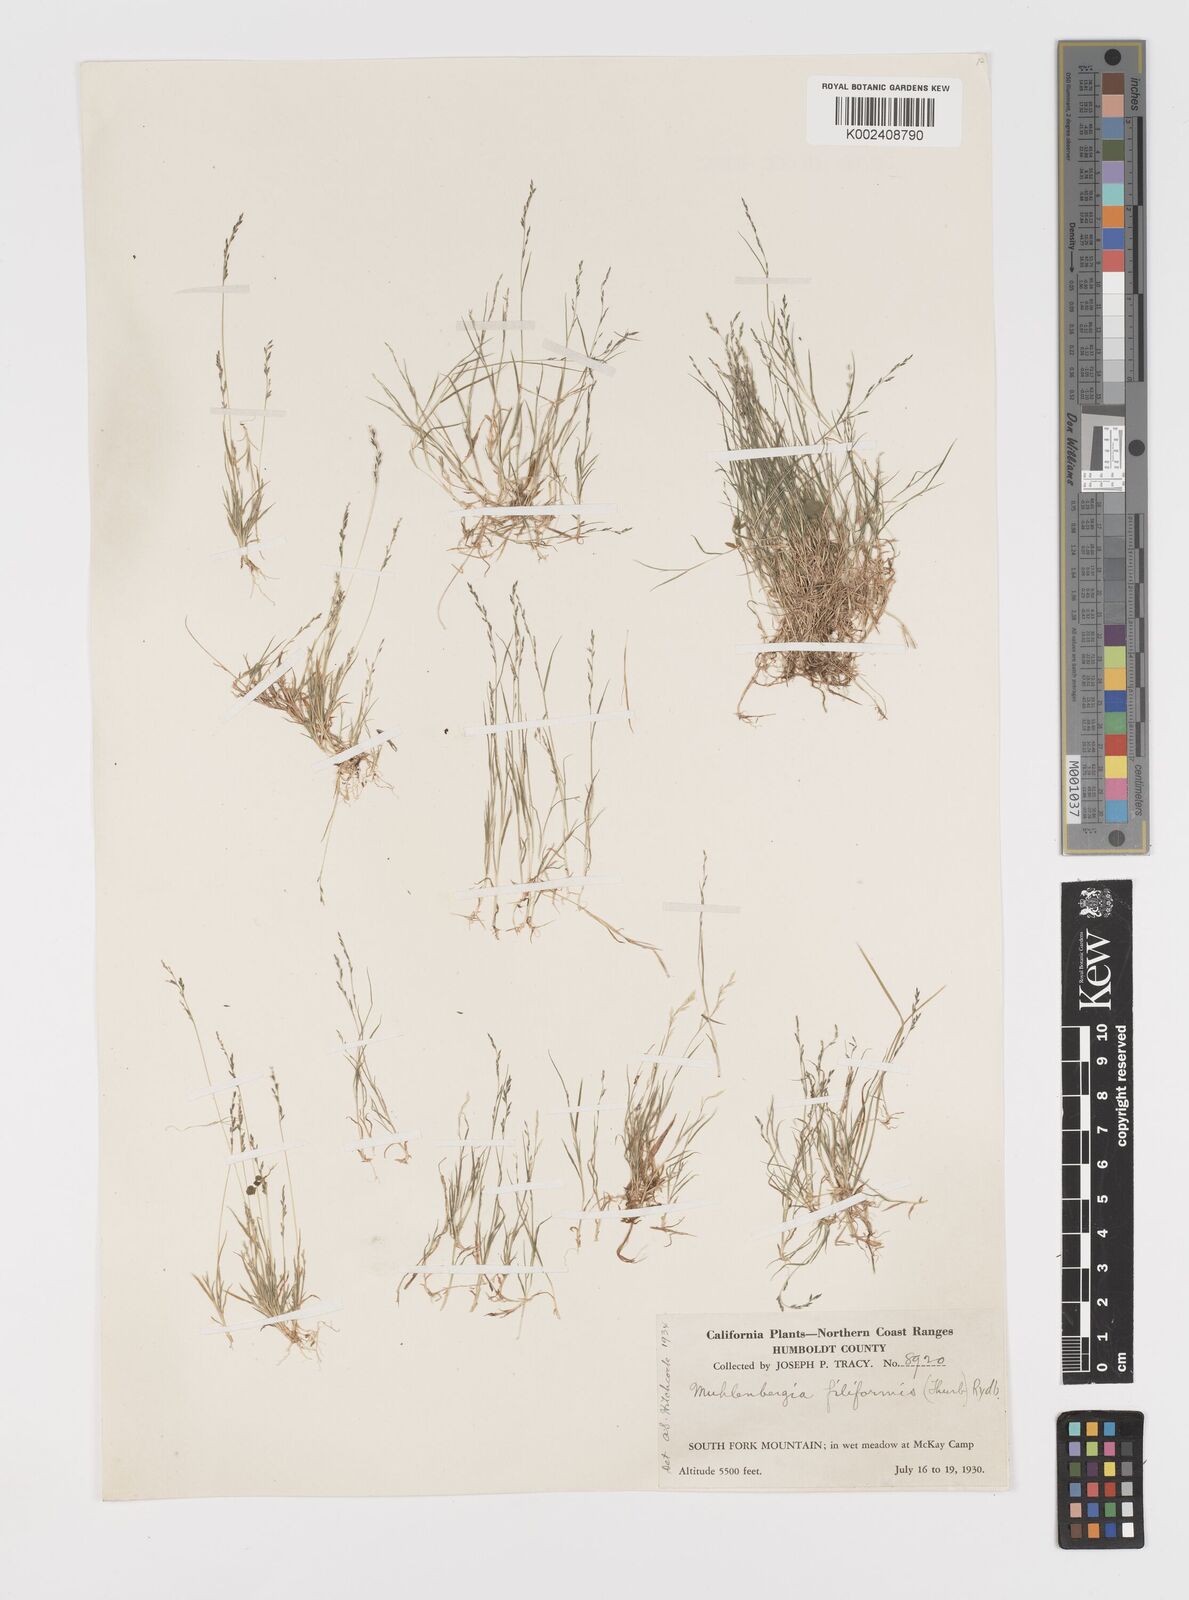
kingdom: Plantae
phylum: Tracheophyta
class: Liliopsida
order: Poales
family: Poaceae
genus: Leptochloa
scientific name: Leptochloa mucronata
